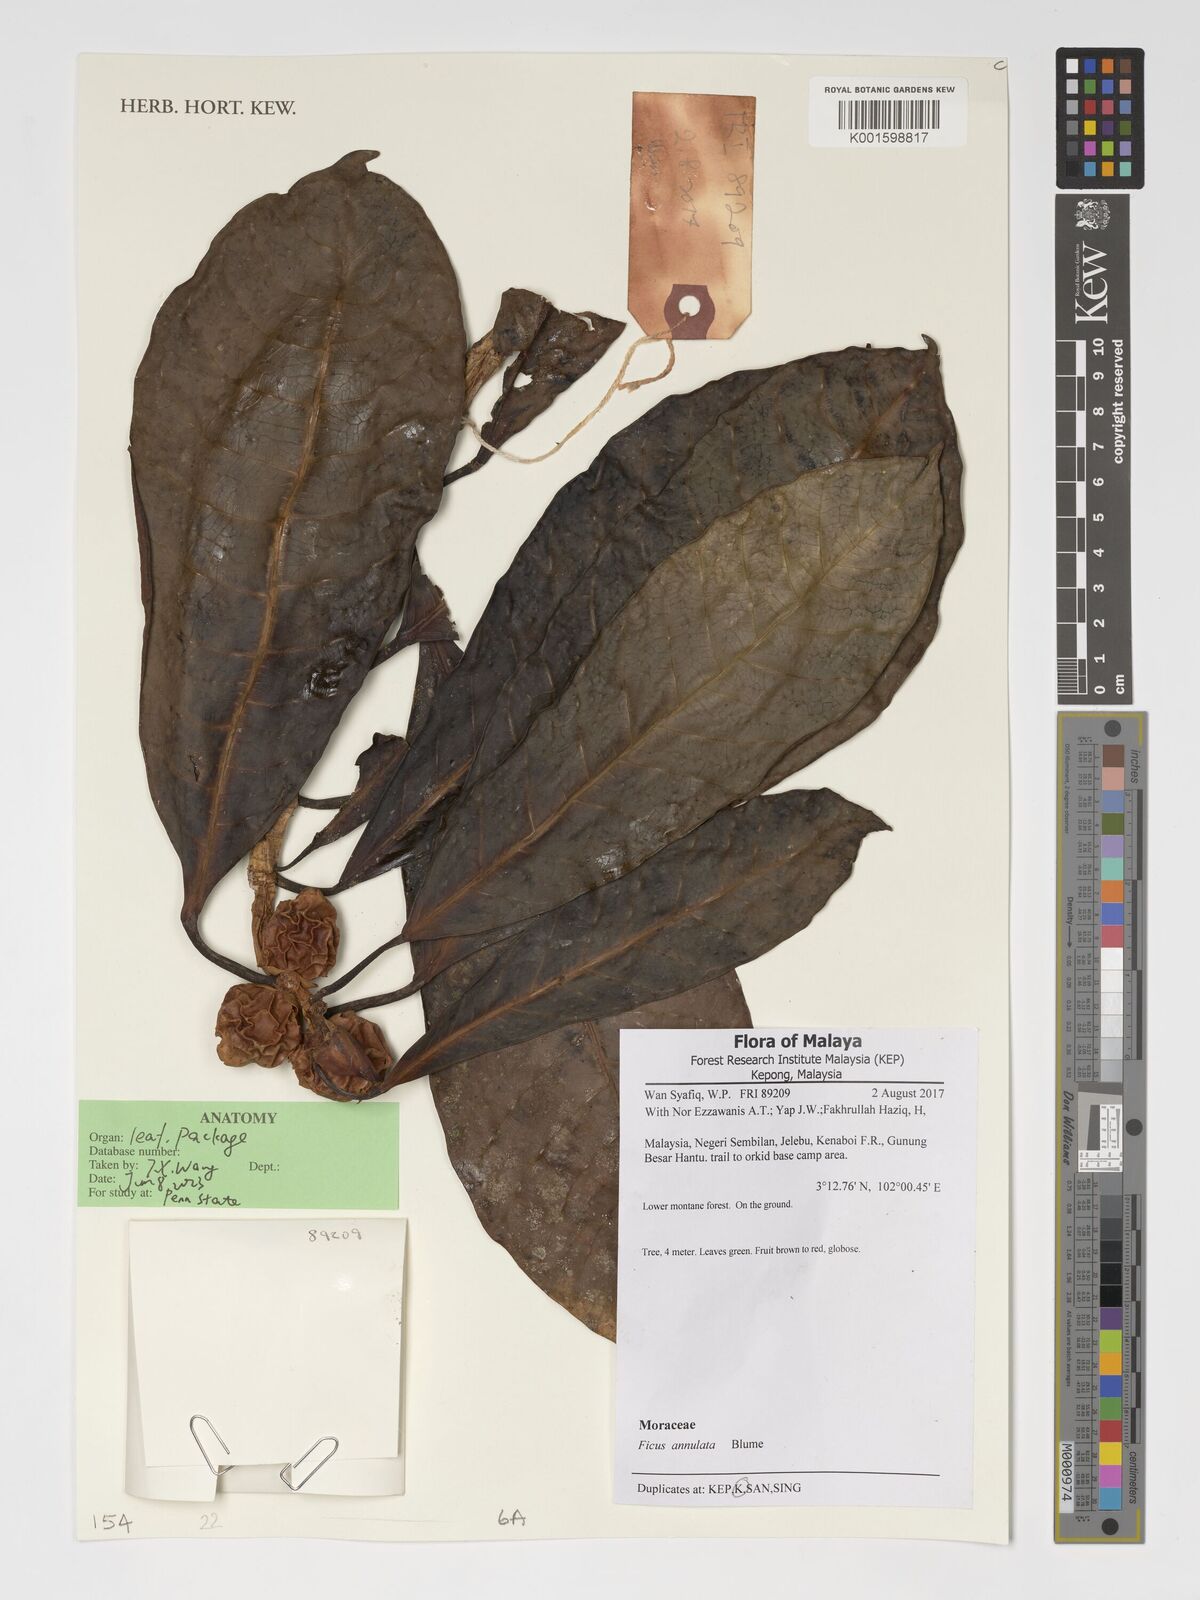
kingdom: Plantae
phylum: Tracheophyta
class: Magnoliopsida
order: Rosales
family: Moraceae
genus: Ficus
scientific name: Ficus annulata
